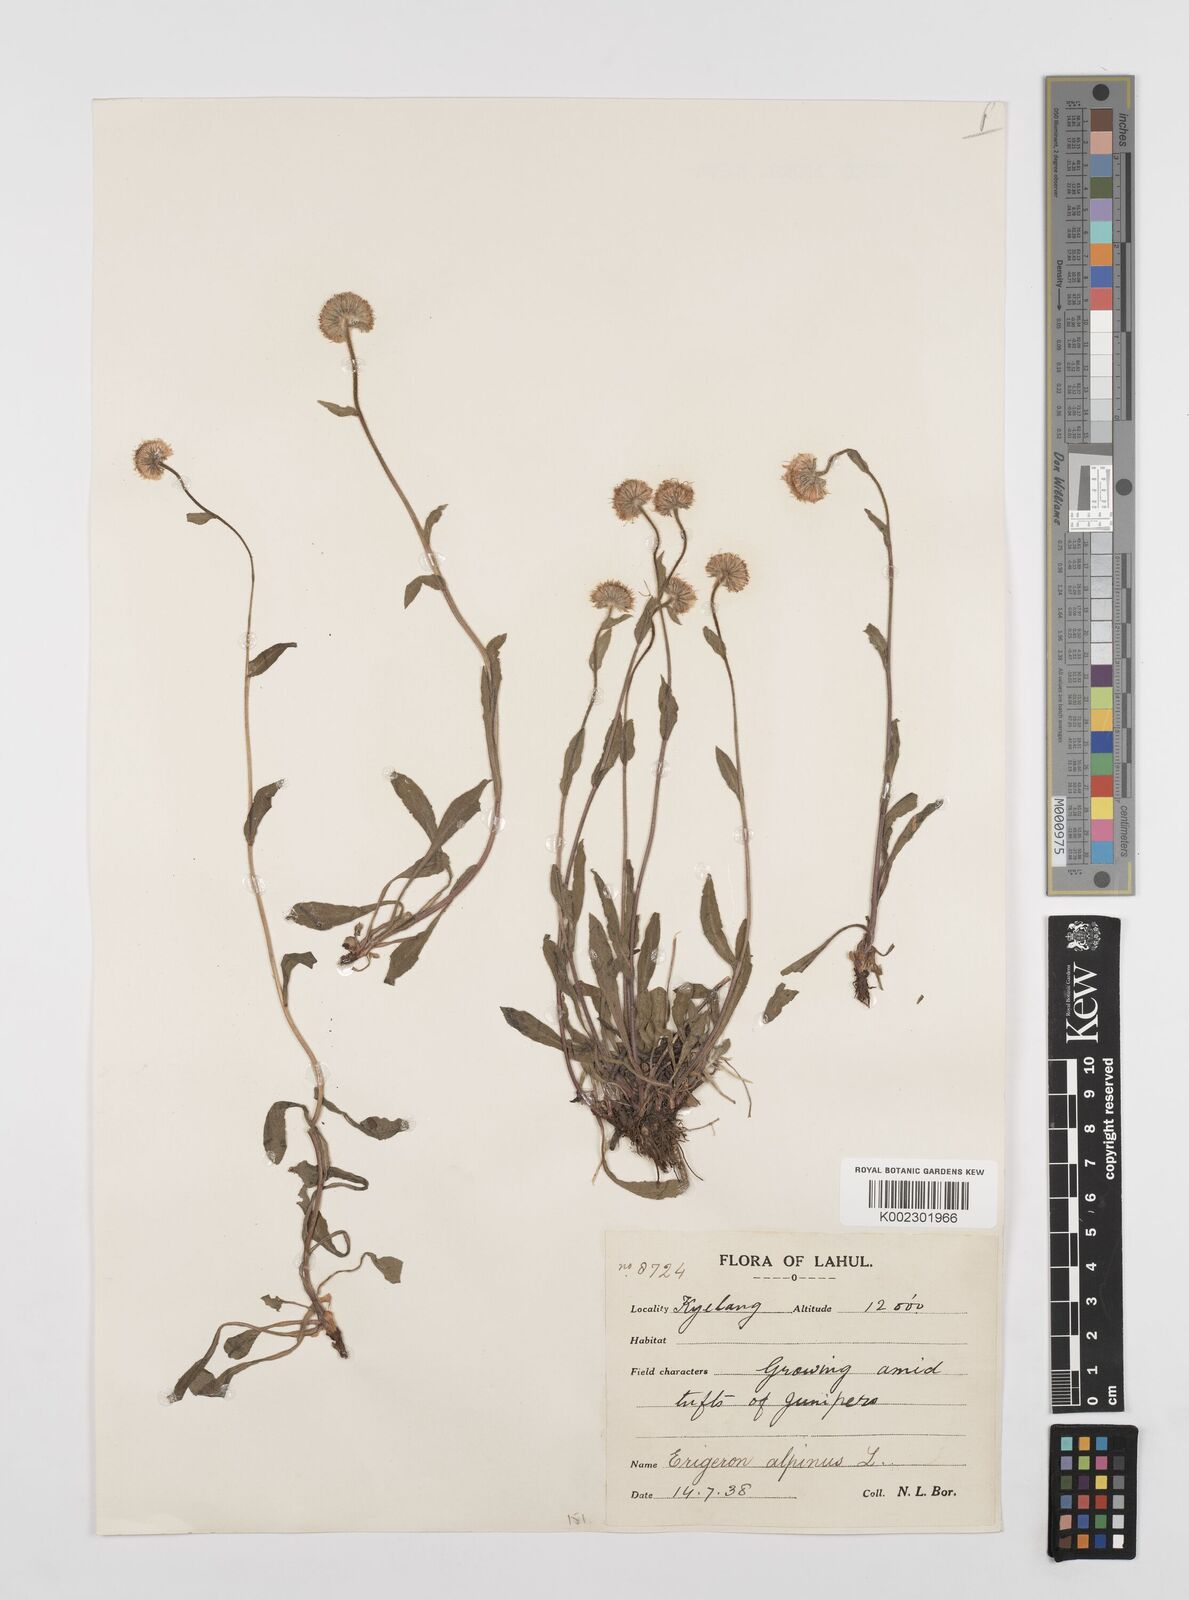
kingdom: Plantae
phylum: Tracheophyta
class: Magnoliopsida
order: Asterales
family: Asteraceae
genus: Erigeron
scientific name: Erigeron alpinus
